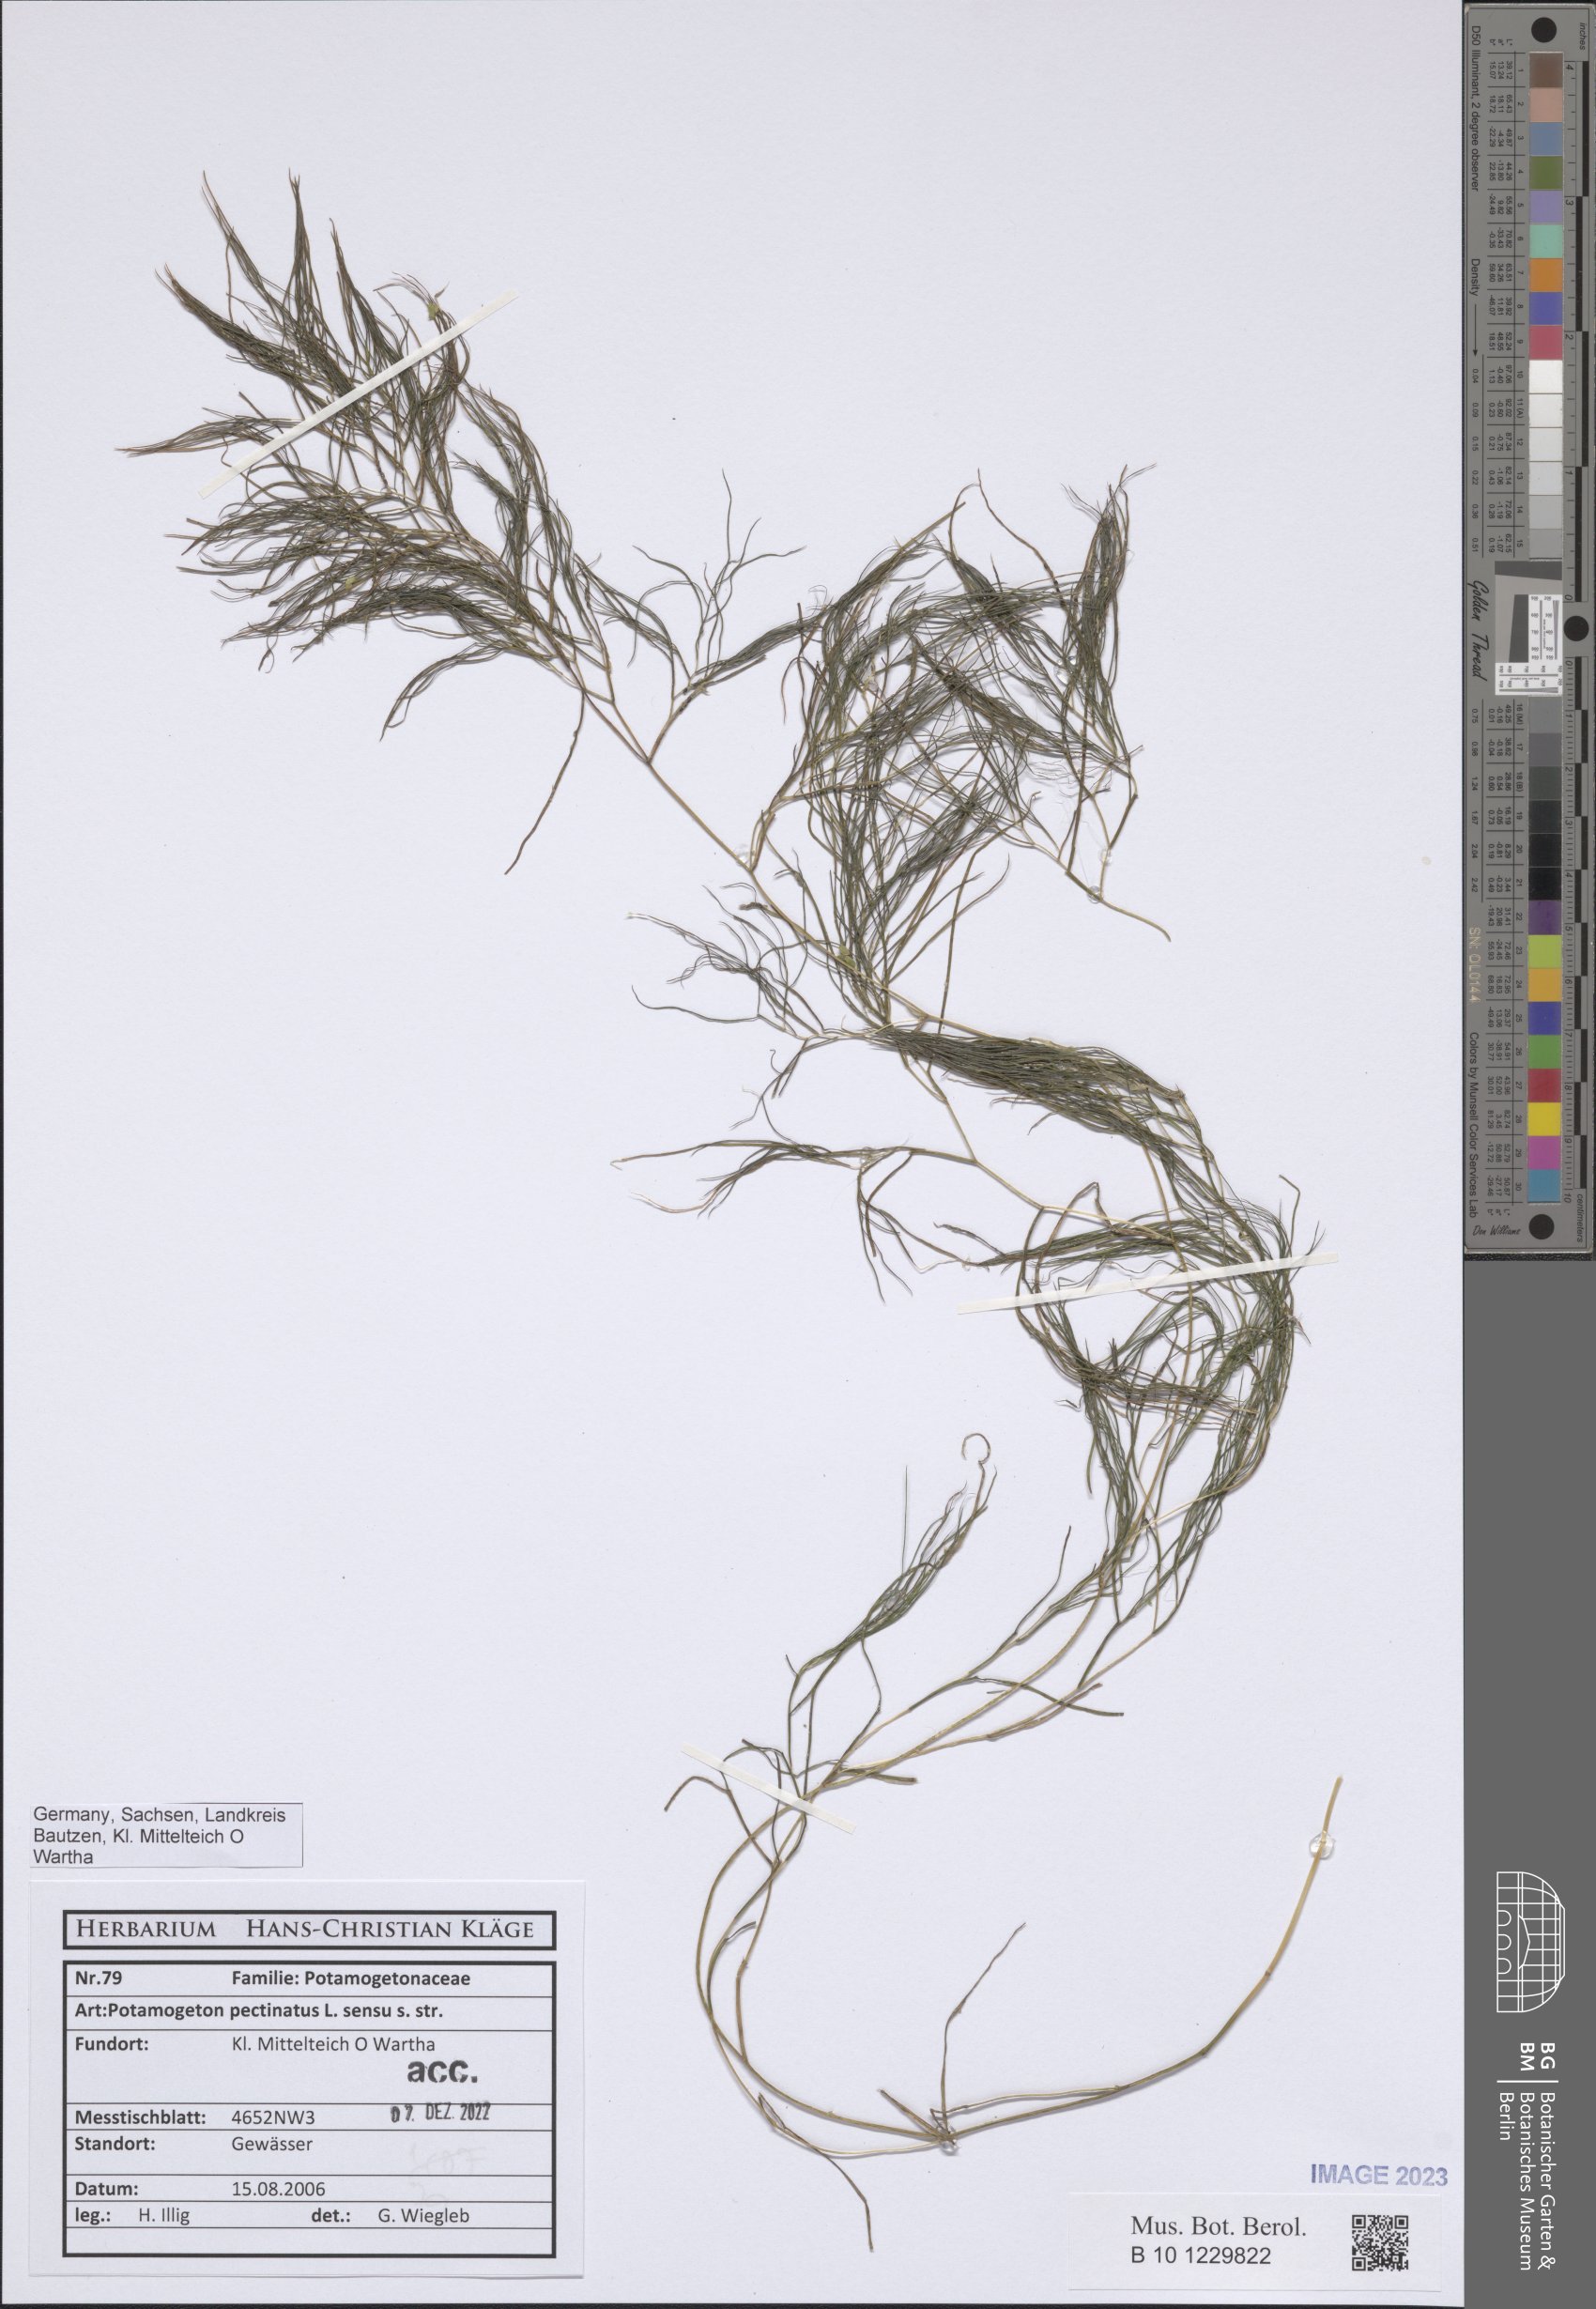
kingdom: Plantae
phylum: Tracheophyta
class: Liliopsida
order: Alismatales
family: Potamogetonaceae
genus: Stuckenia
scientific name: Stuckenia pectinata
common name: Sago pondweed
